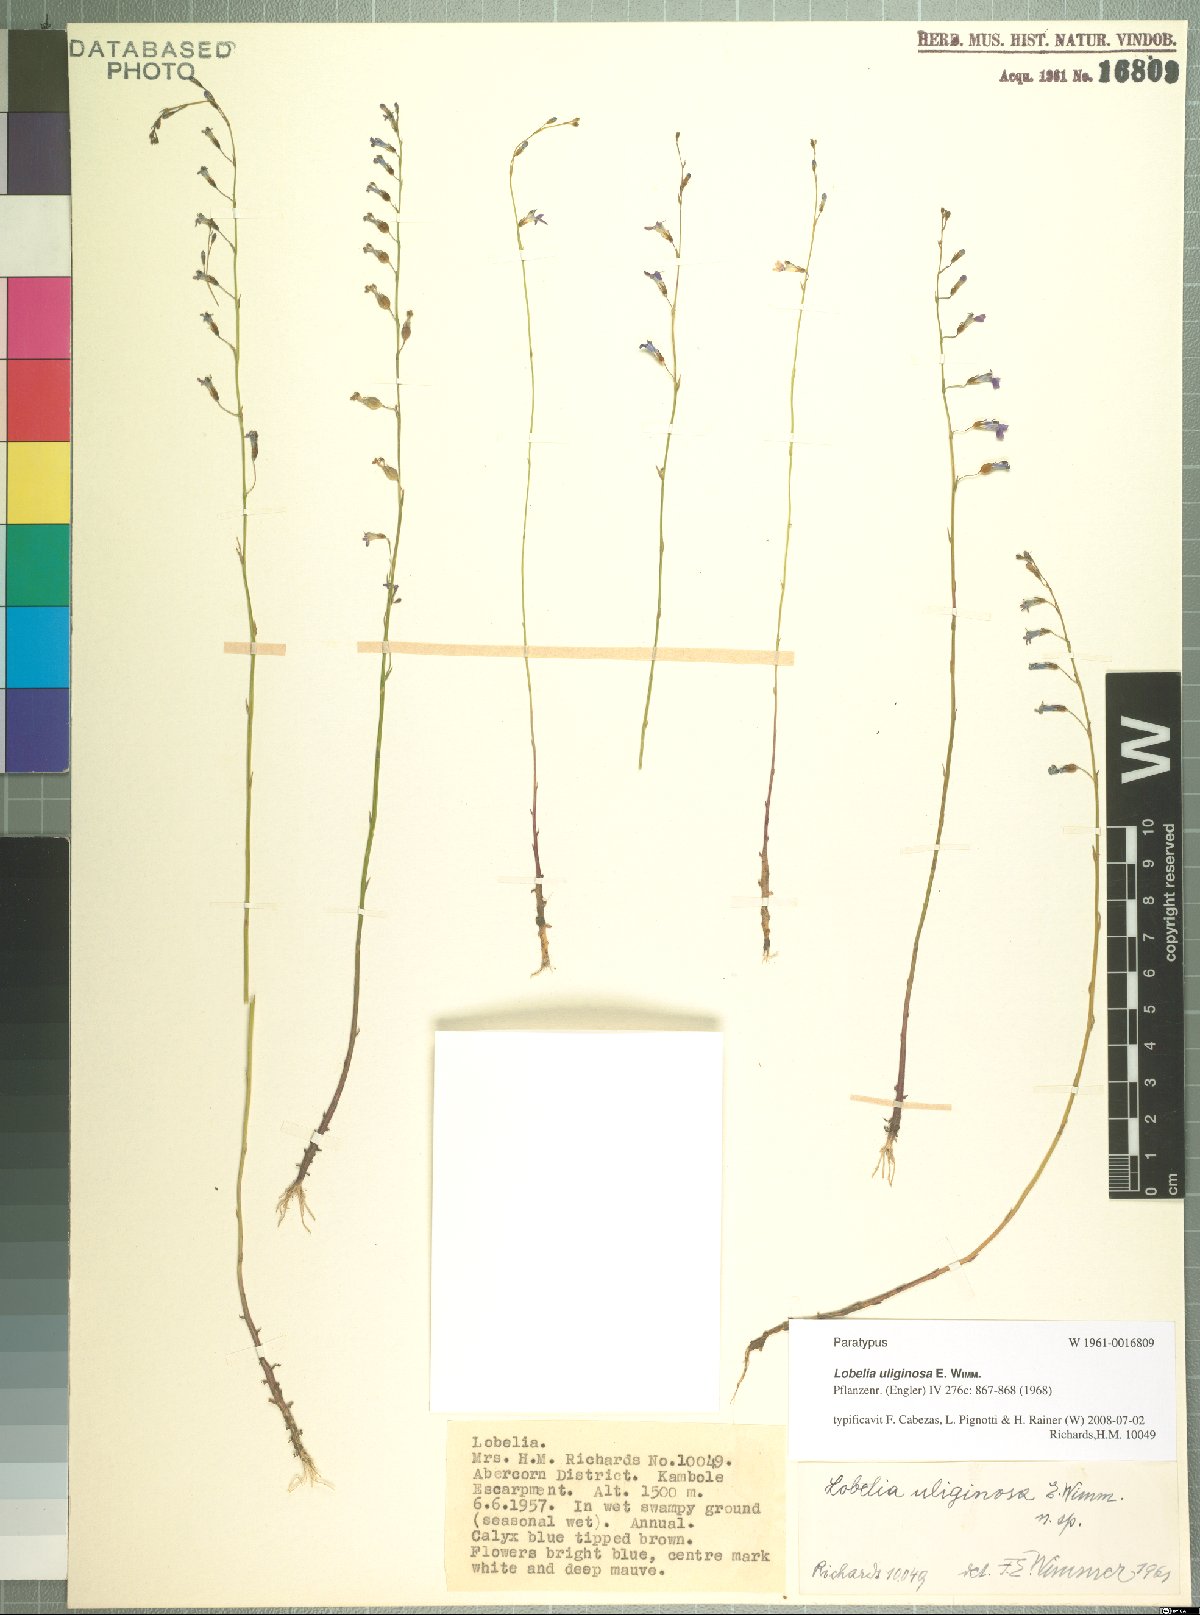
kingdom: Plantae
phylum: Tracheophyta
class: Magnoliopsida
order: Asterales
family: Campanulaceae
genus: Lobelia
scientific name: Lobelia uliginosa
